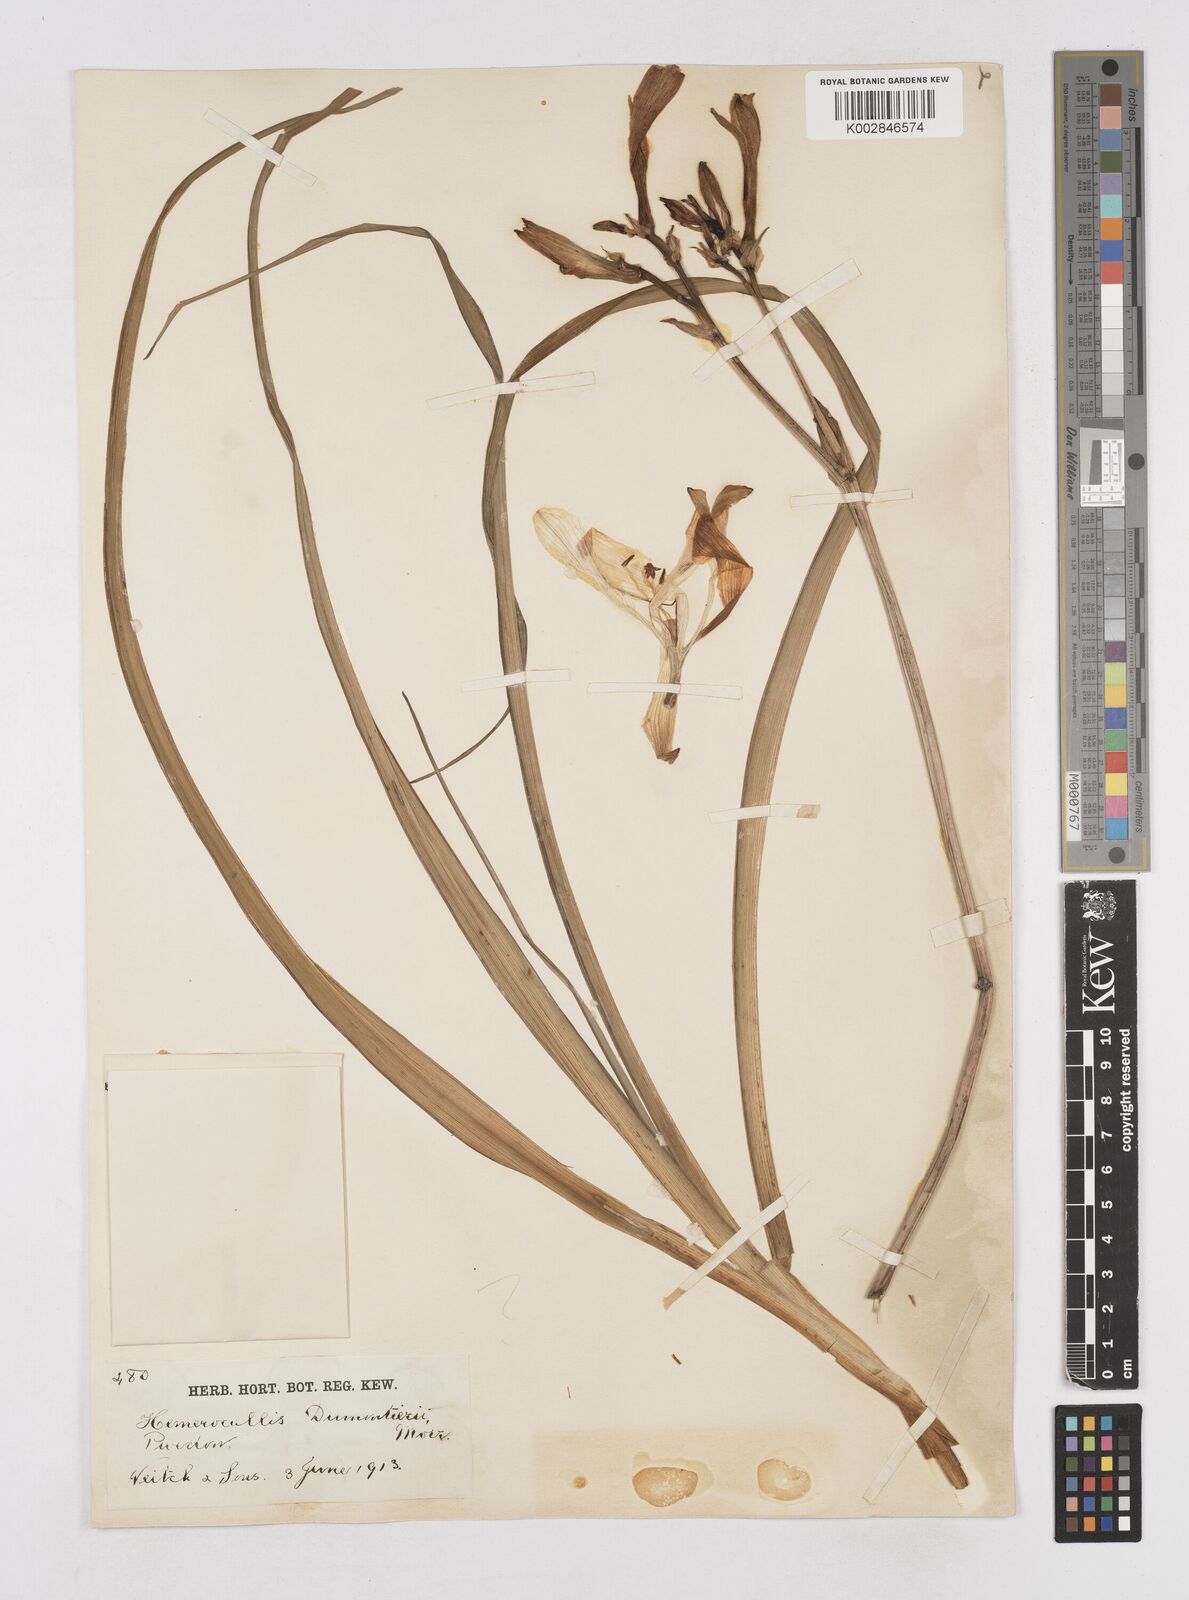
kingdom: Plantae
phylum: Tracheophyta
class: Liliopsida
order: Asparagales
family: Asphodelaceae
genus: Hemerocallis
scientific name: Hemerocallis
